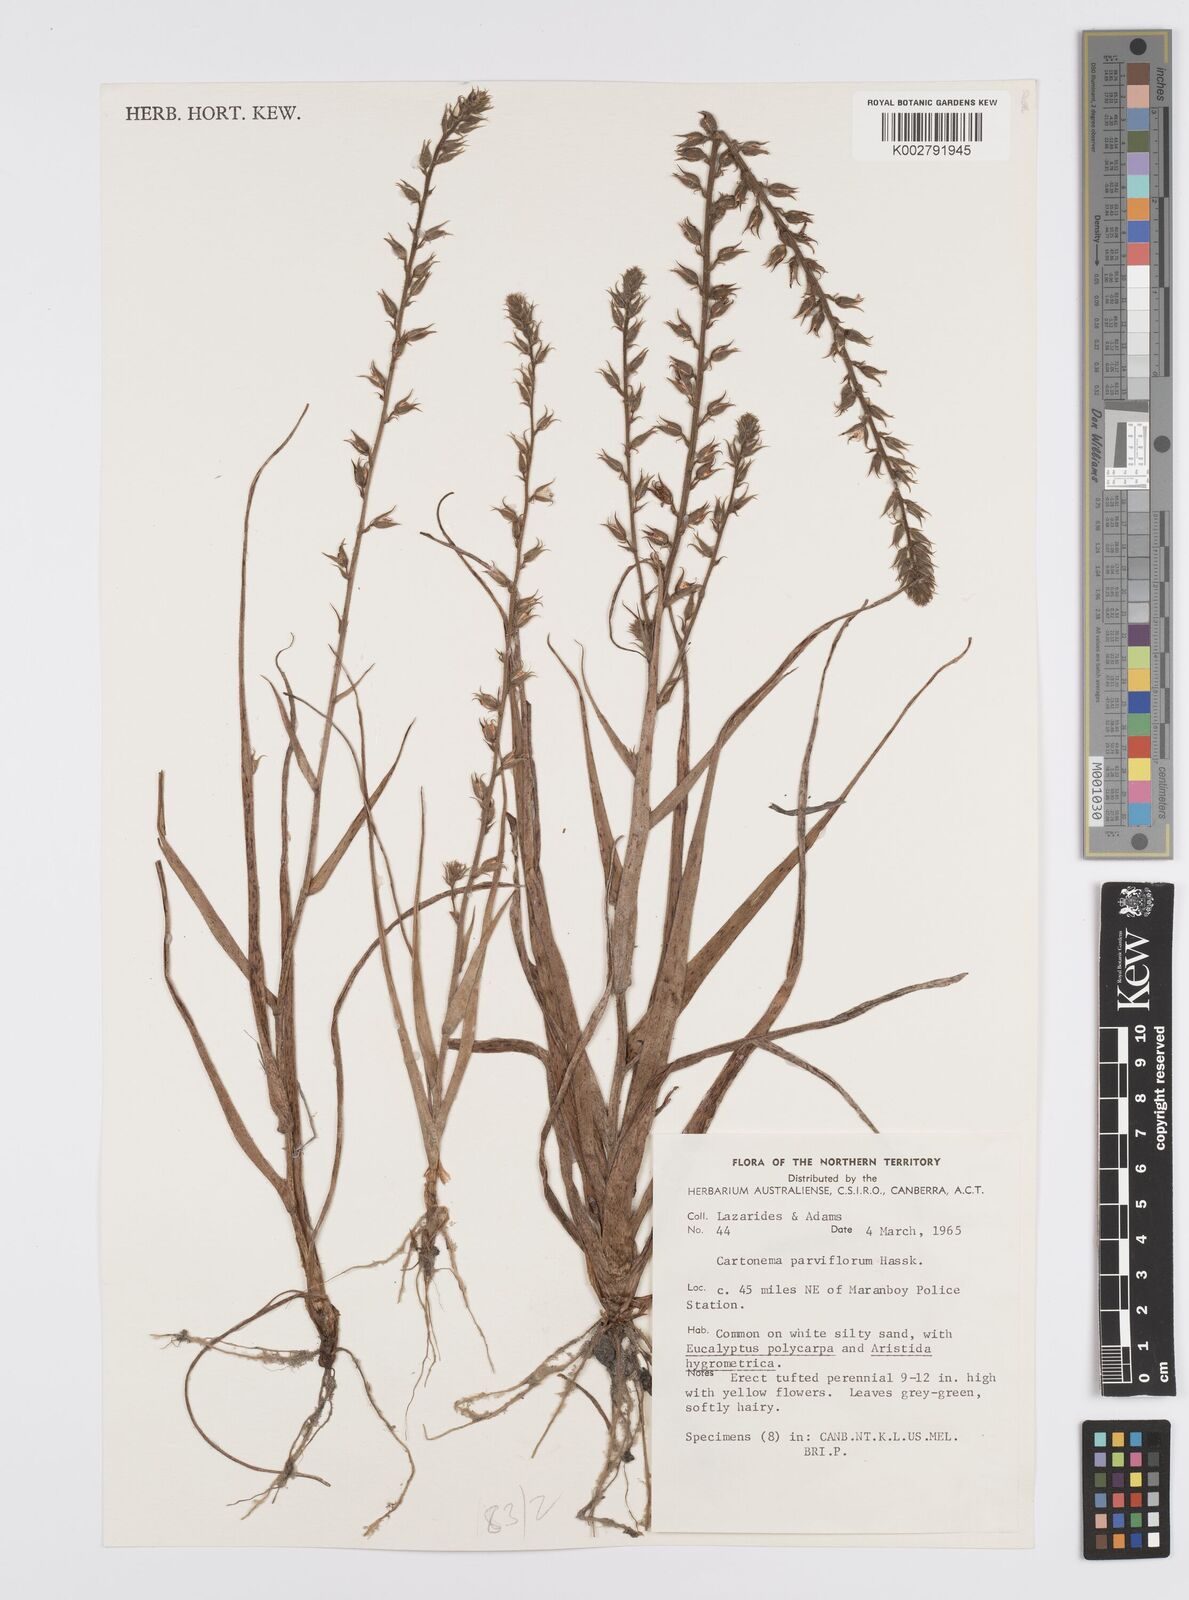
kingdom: Plantae
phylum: Tracheophyta
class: Liliopsida
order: Commelinales
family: Commelinaceae
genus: Cartonema
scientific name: Cartonema parviflorum
